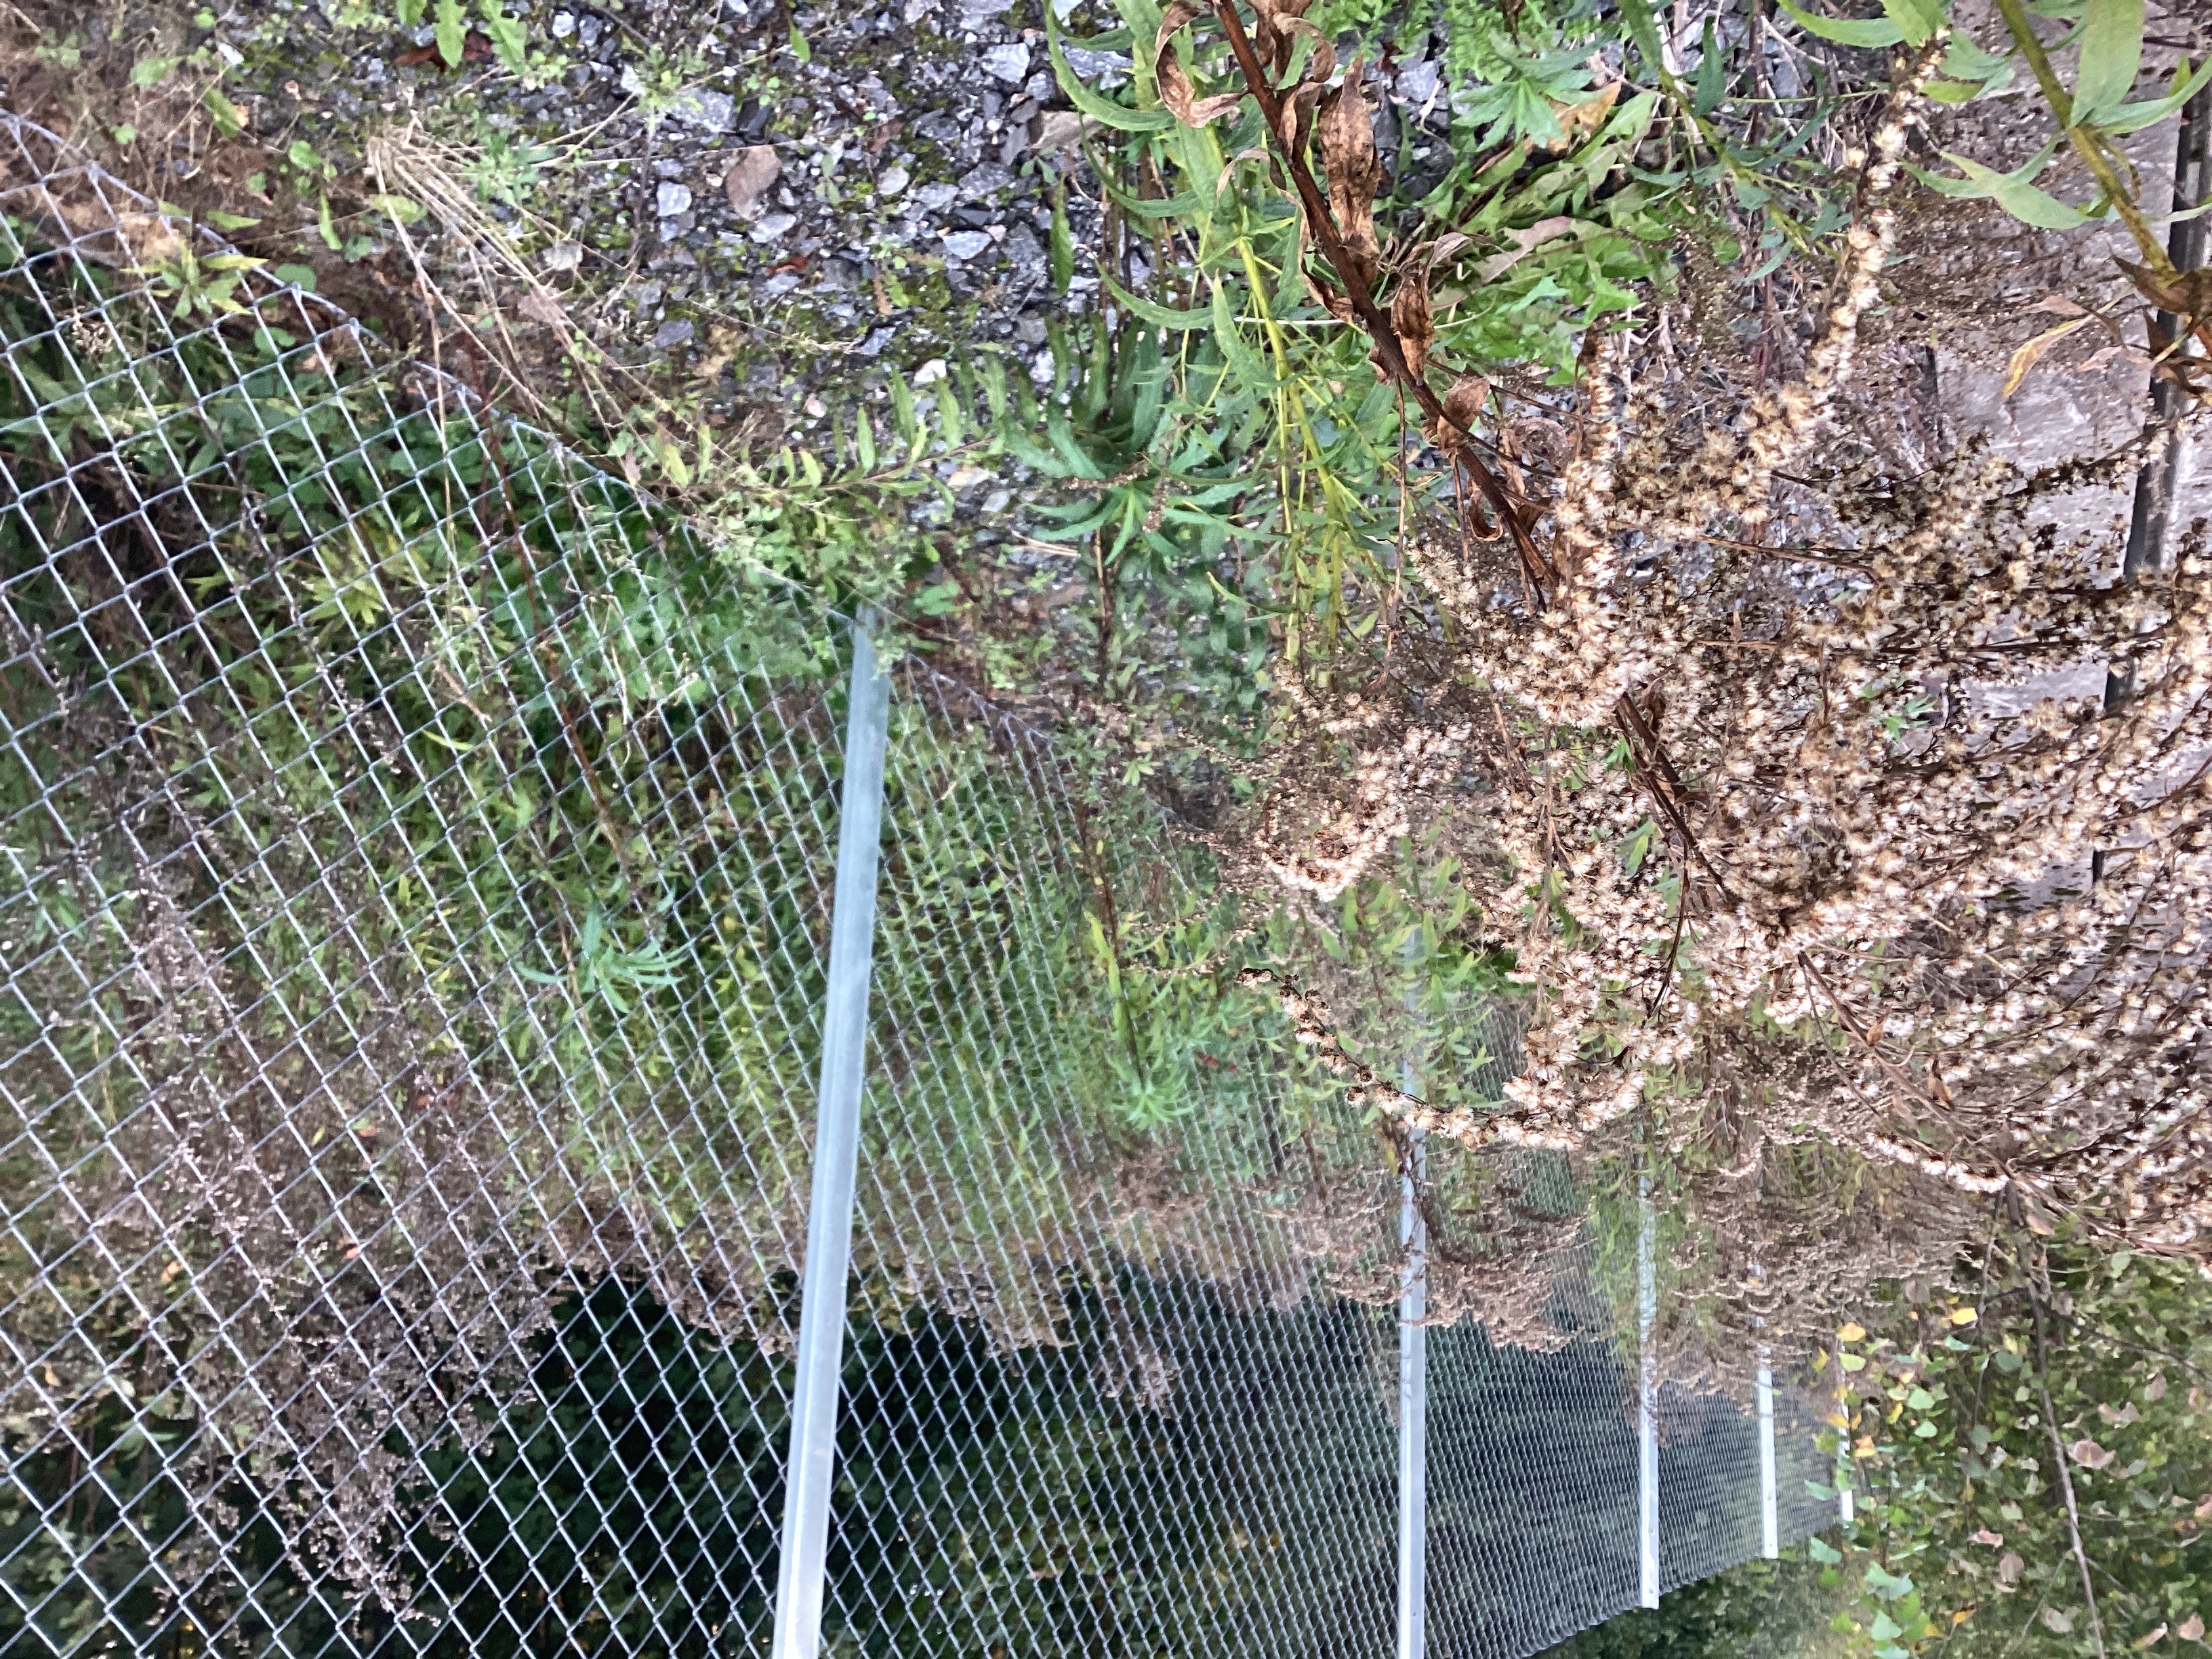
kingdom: Plantae
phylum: Tracheophyta
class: Magnoliopsida
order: Asterales
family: Asteraceae
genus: Solidago
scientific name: Solidago canadensis
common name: kanadagullris
